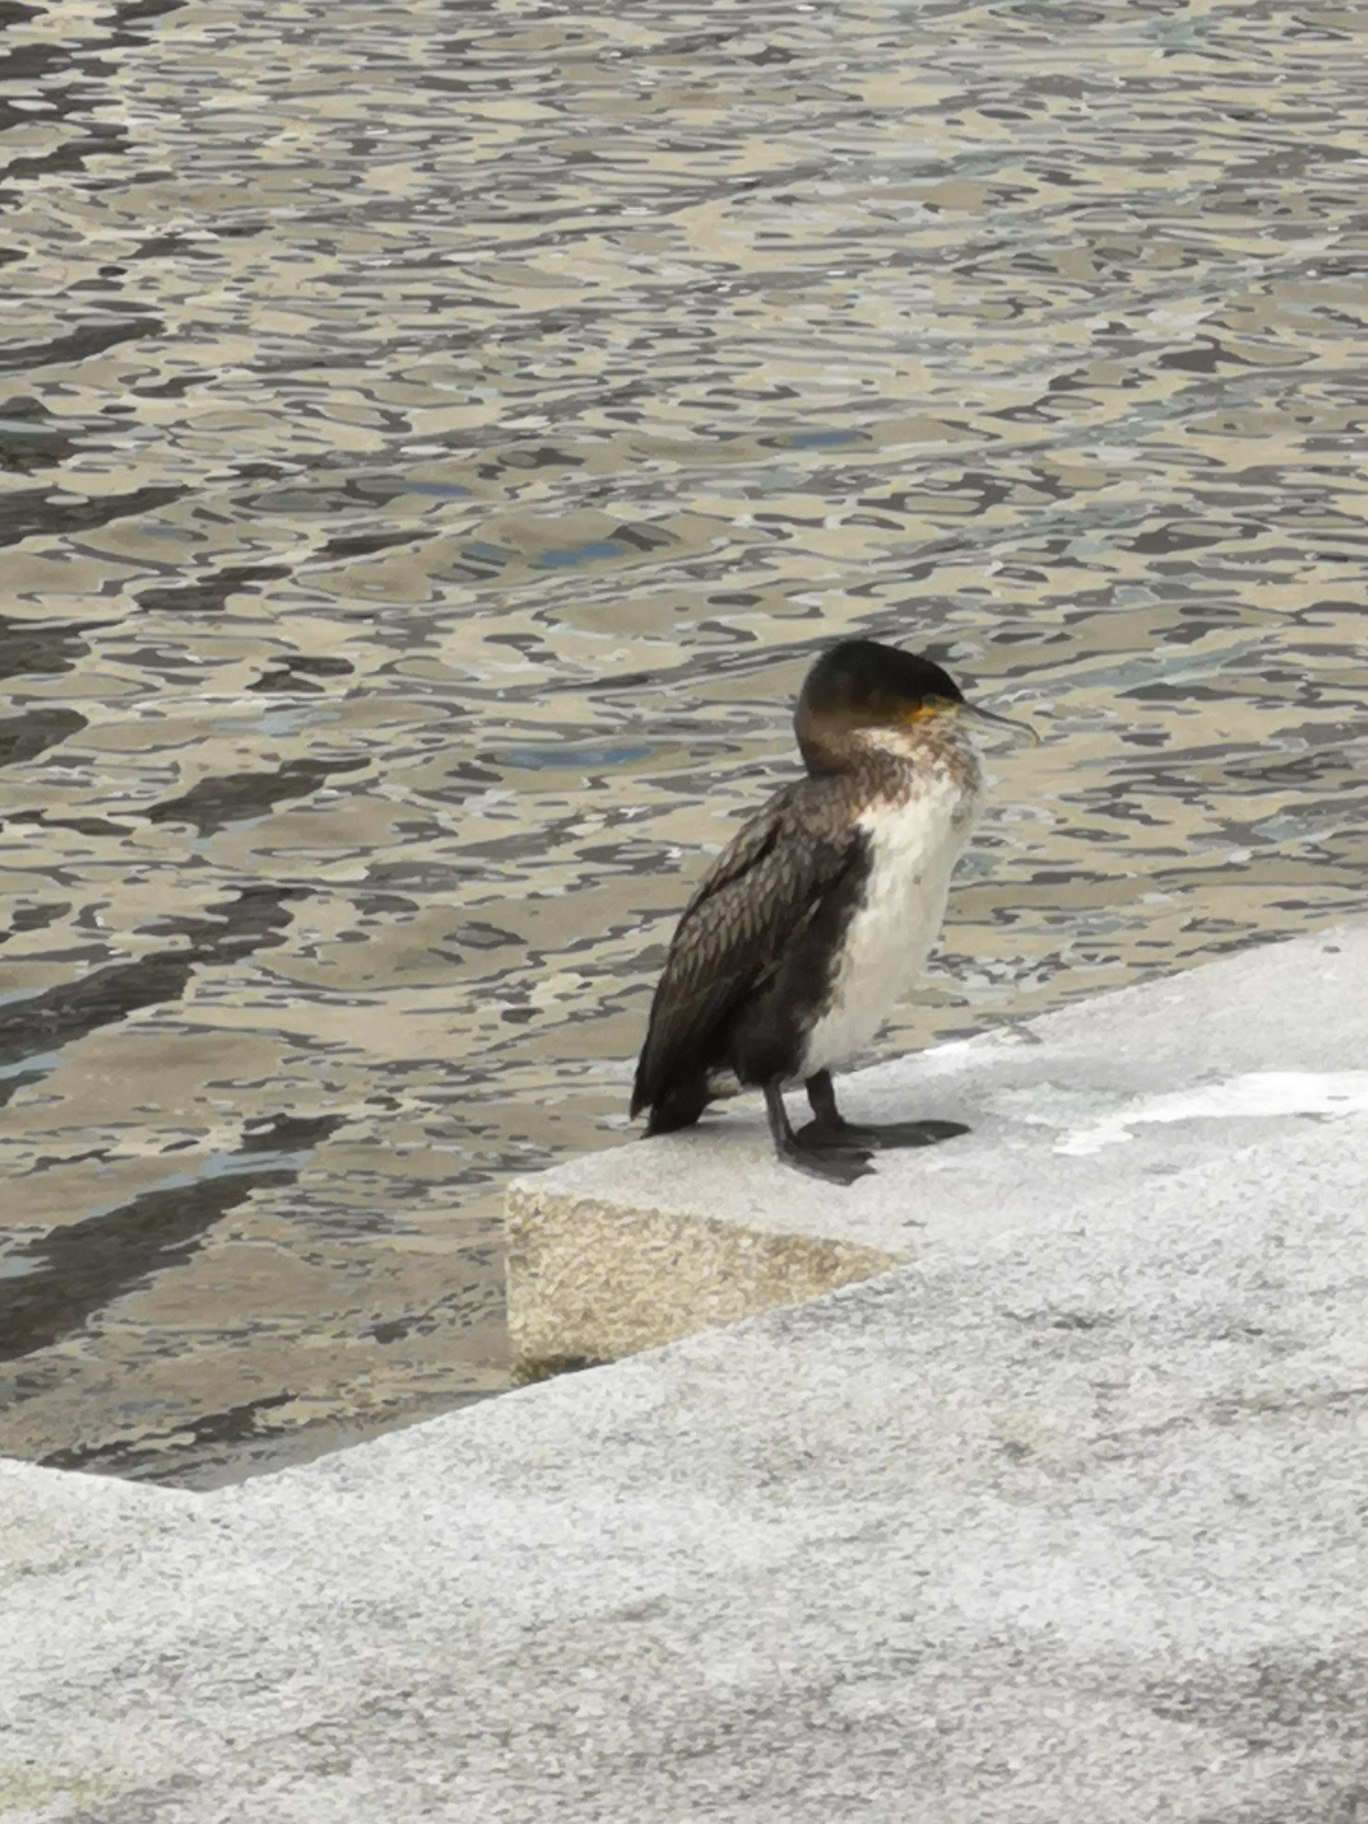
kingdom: Animalia
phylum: Chordata
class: Aves
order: Suliformes
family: Phalacrocoracidae
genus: Phalacrocorax
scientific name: Phalacrocorax carbo
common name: Skarv
